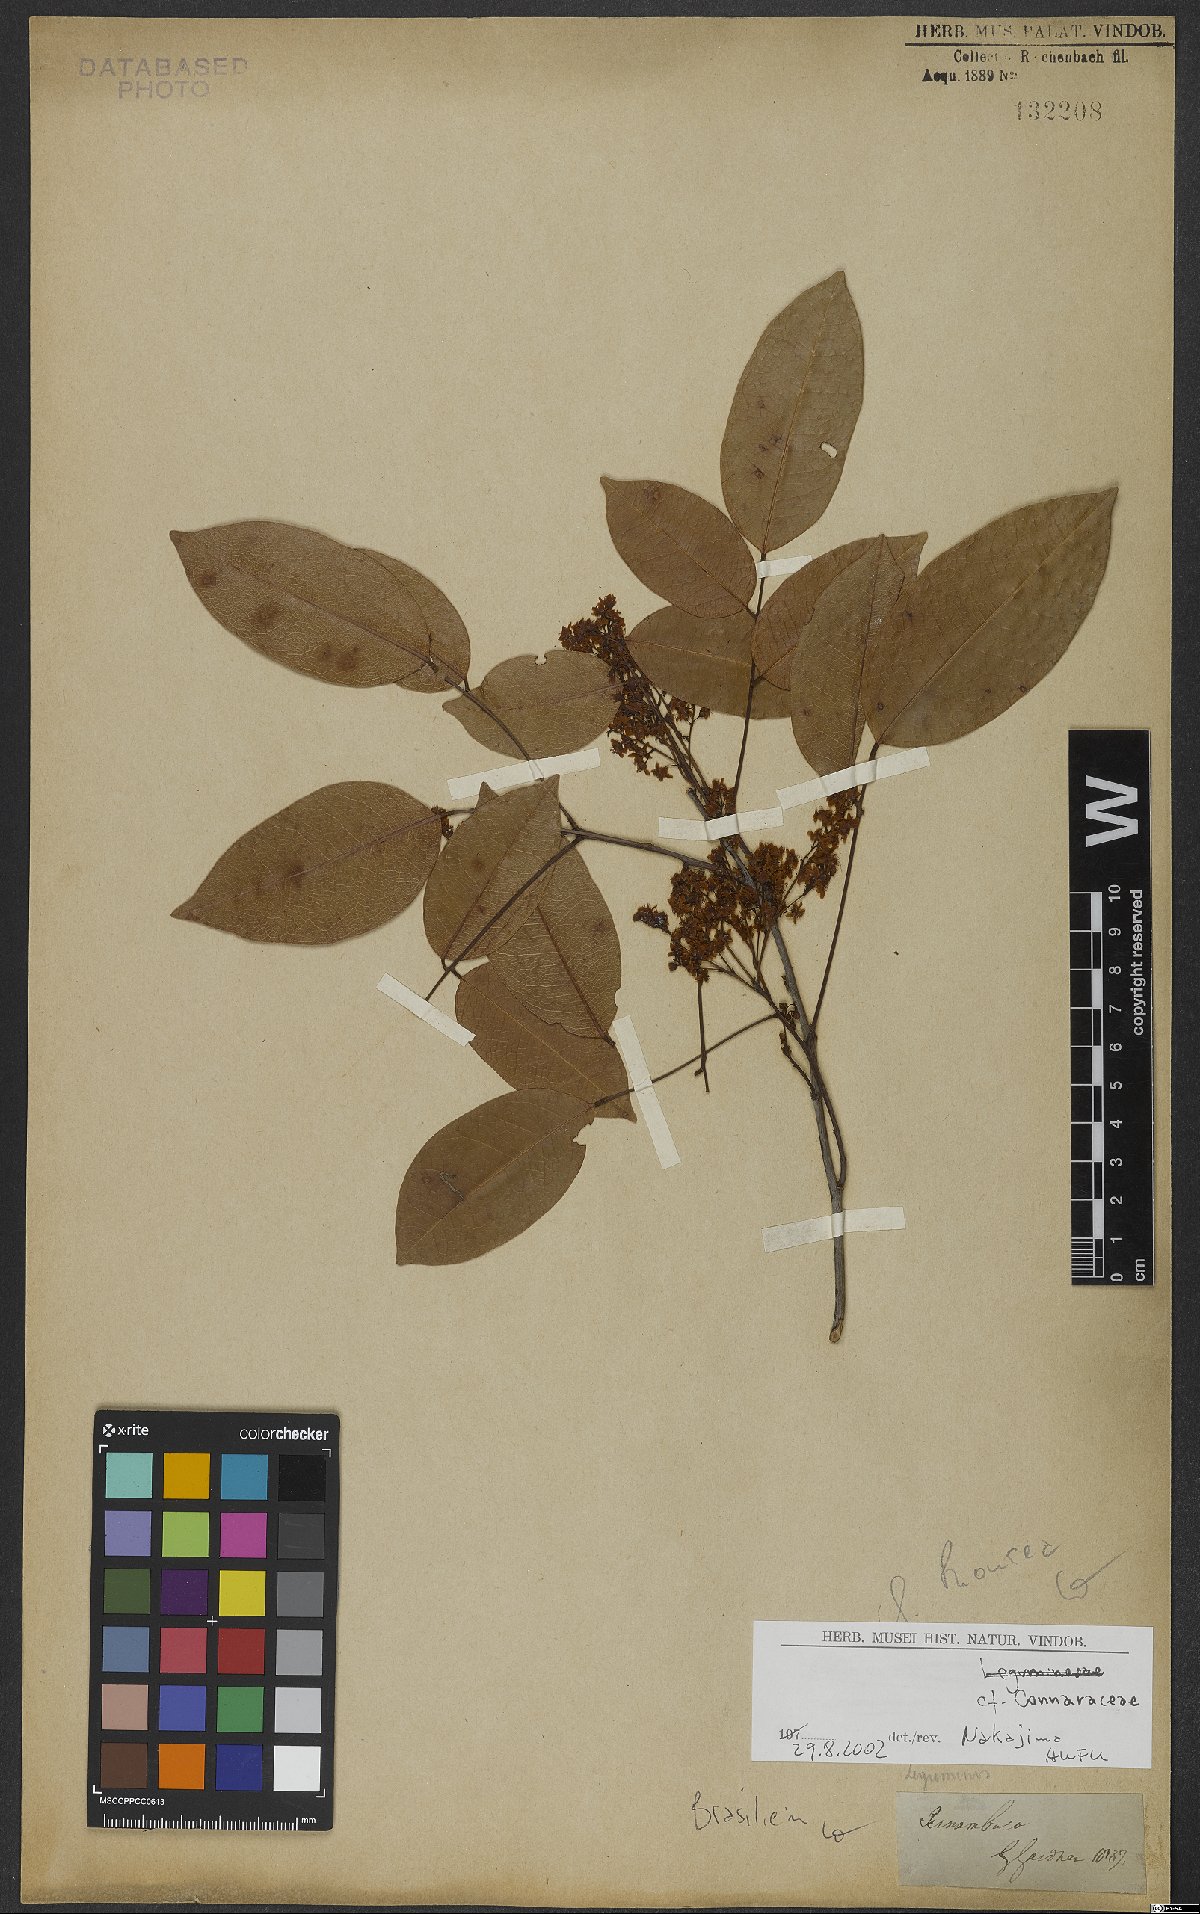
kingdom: Plantae
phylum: Tracheophyta
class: Magnoliopsida
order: Oxalidales
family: Connaraceae
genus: Rourea
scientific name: Rourea
